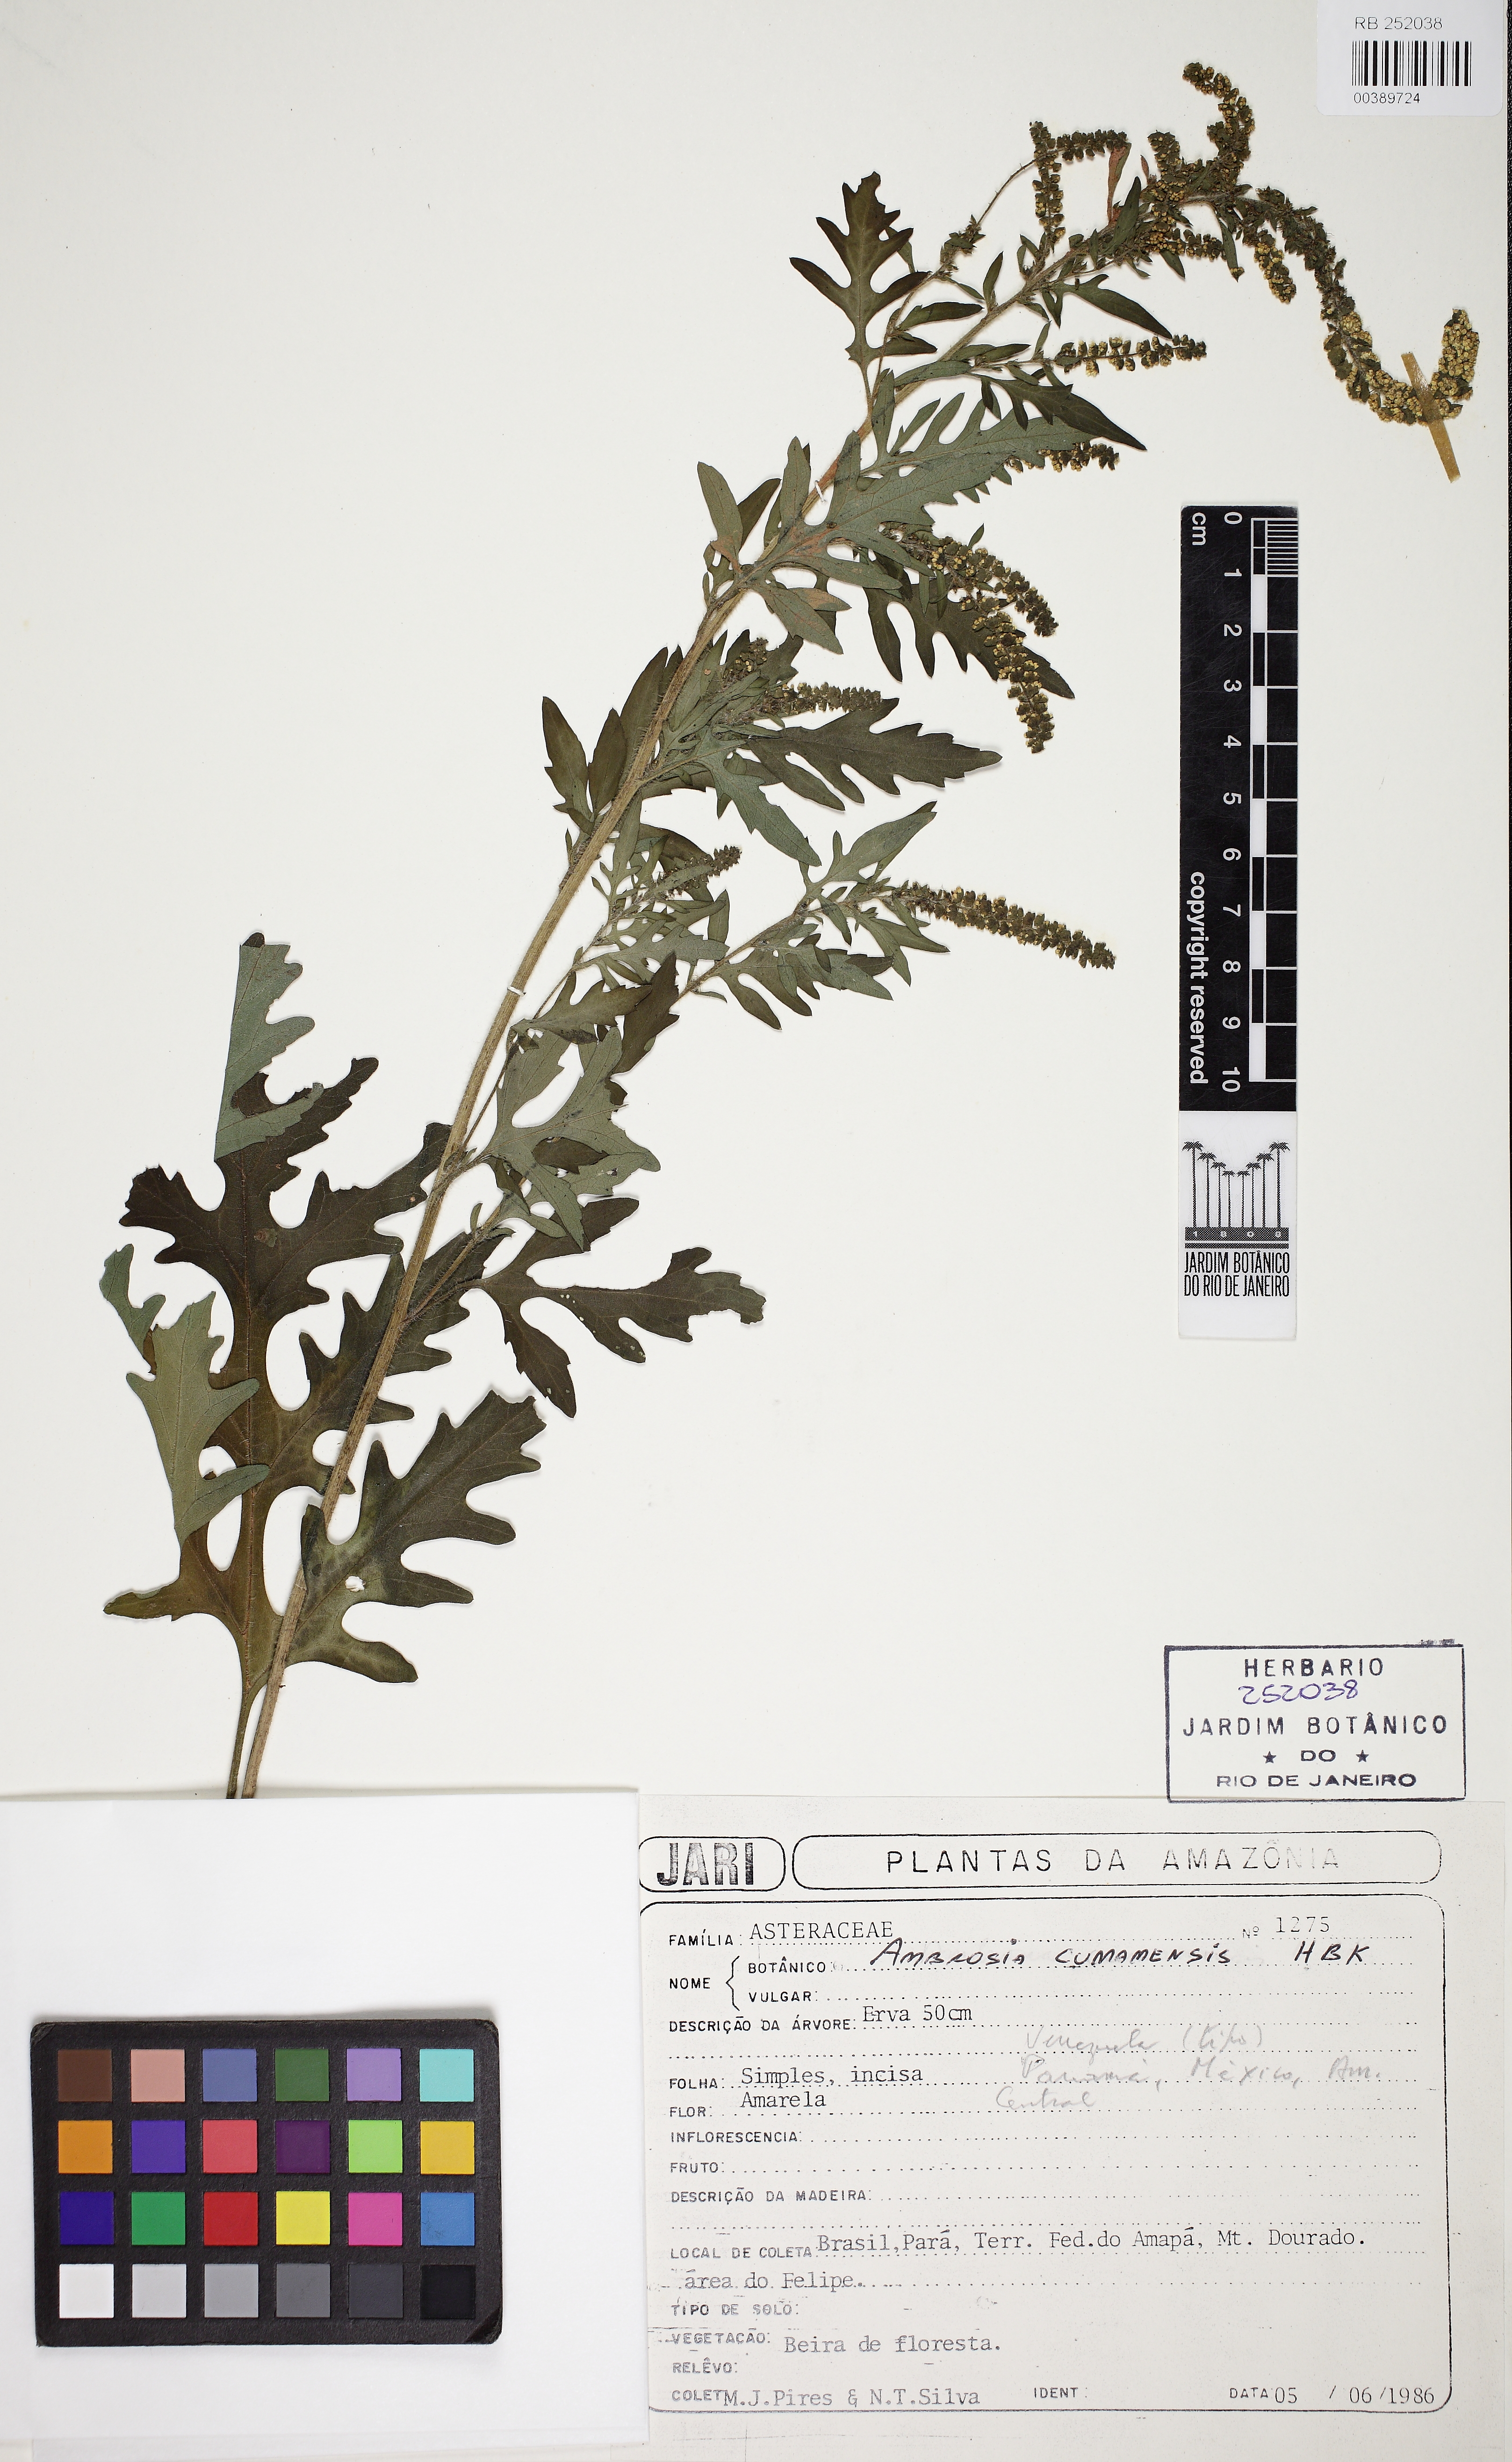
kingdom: Plantae
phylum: Tracheophyta
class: Magnoliopsida
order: Asterales
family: Asteraceae
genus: Ambrosia
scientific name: Ambrosia cumanensis
